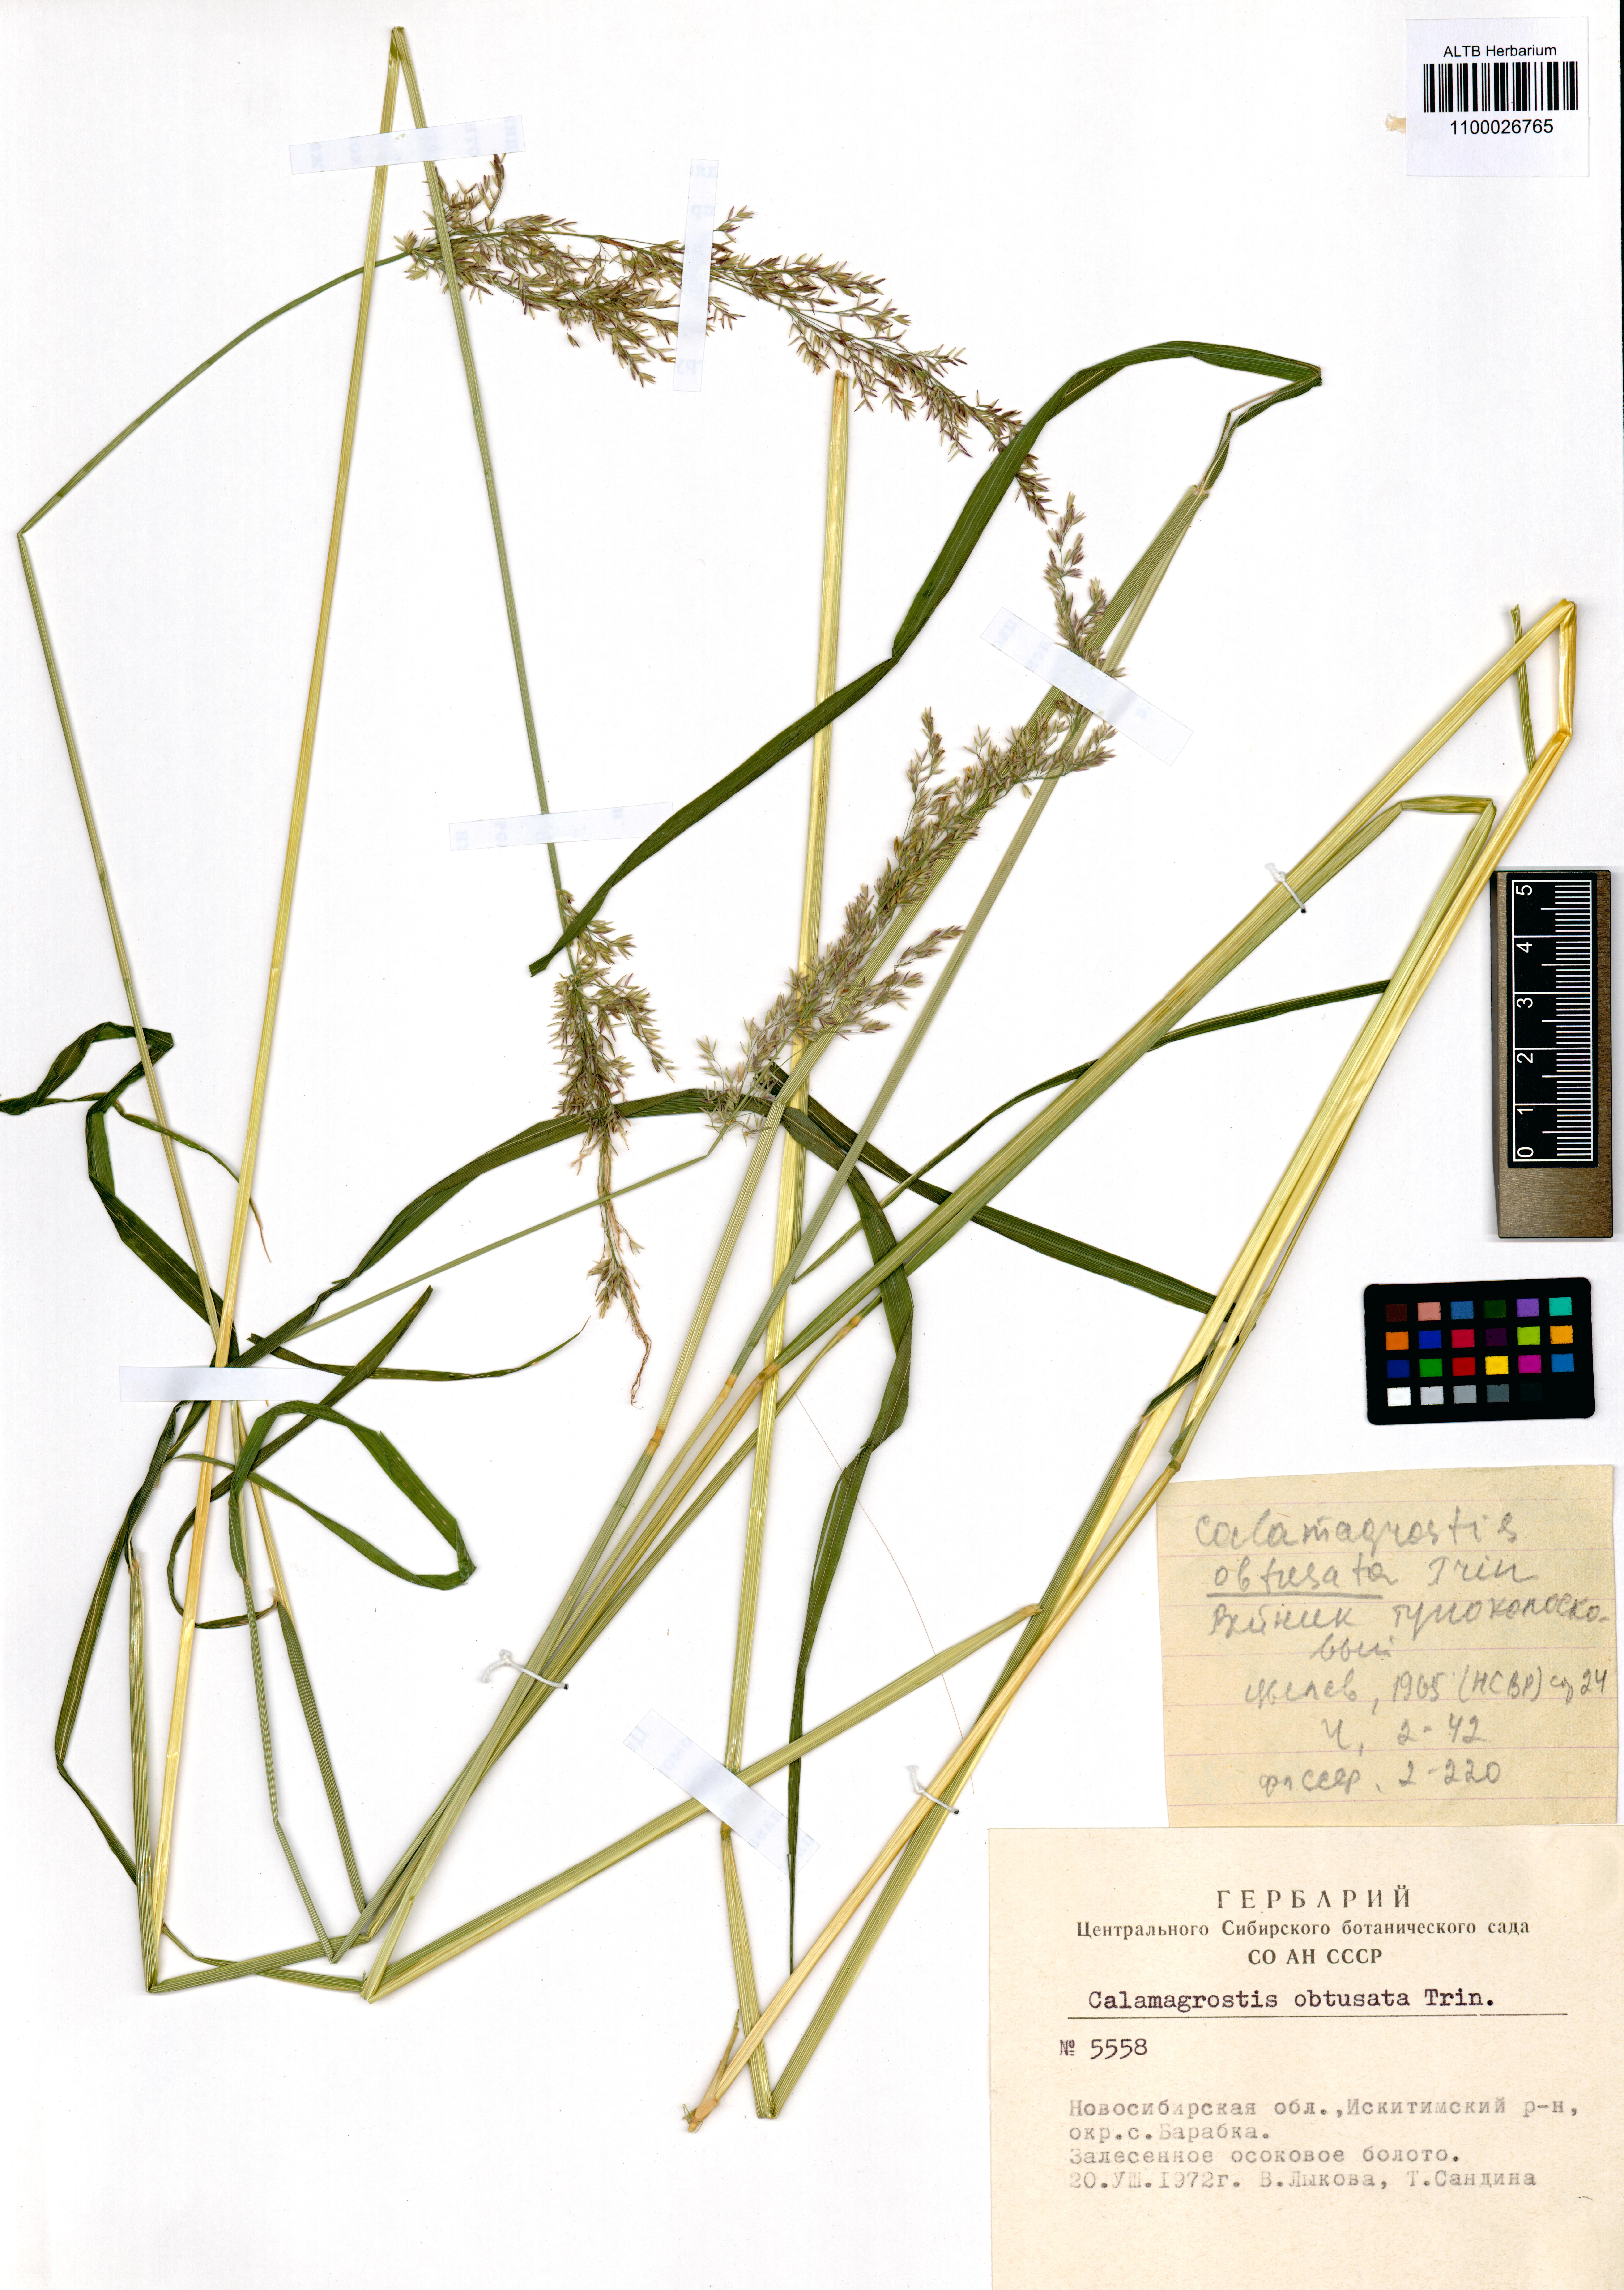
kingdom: Plantae
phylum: Tracheophyta
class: Liliopsida
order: Poales
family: Poaceae
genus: Calamagrostis
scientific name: Calamagrostis obtusata
